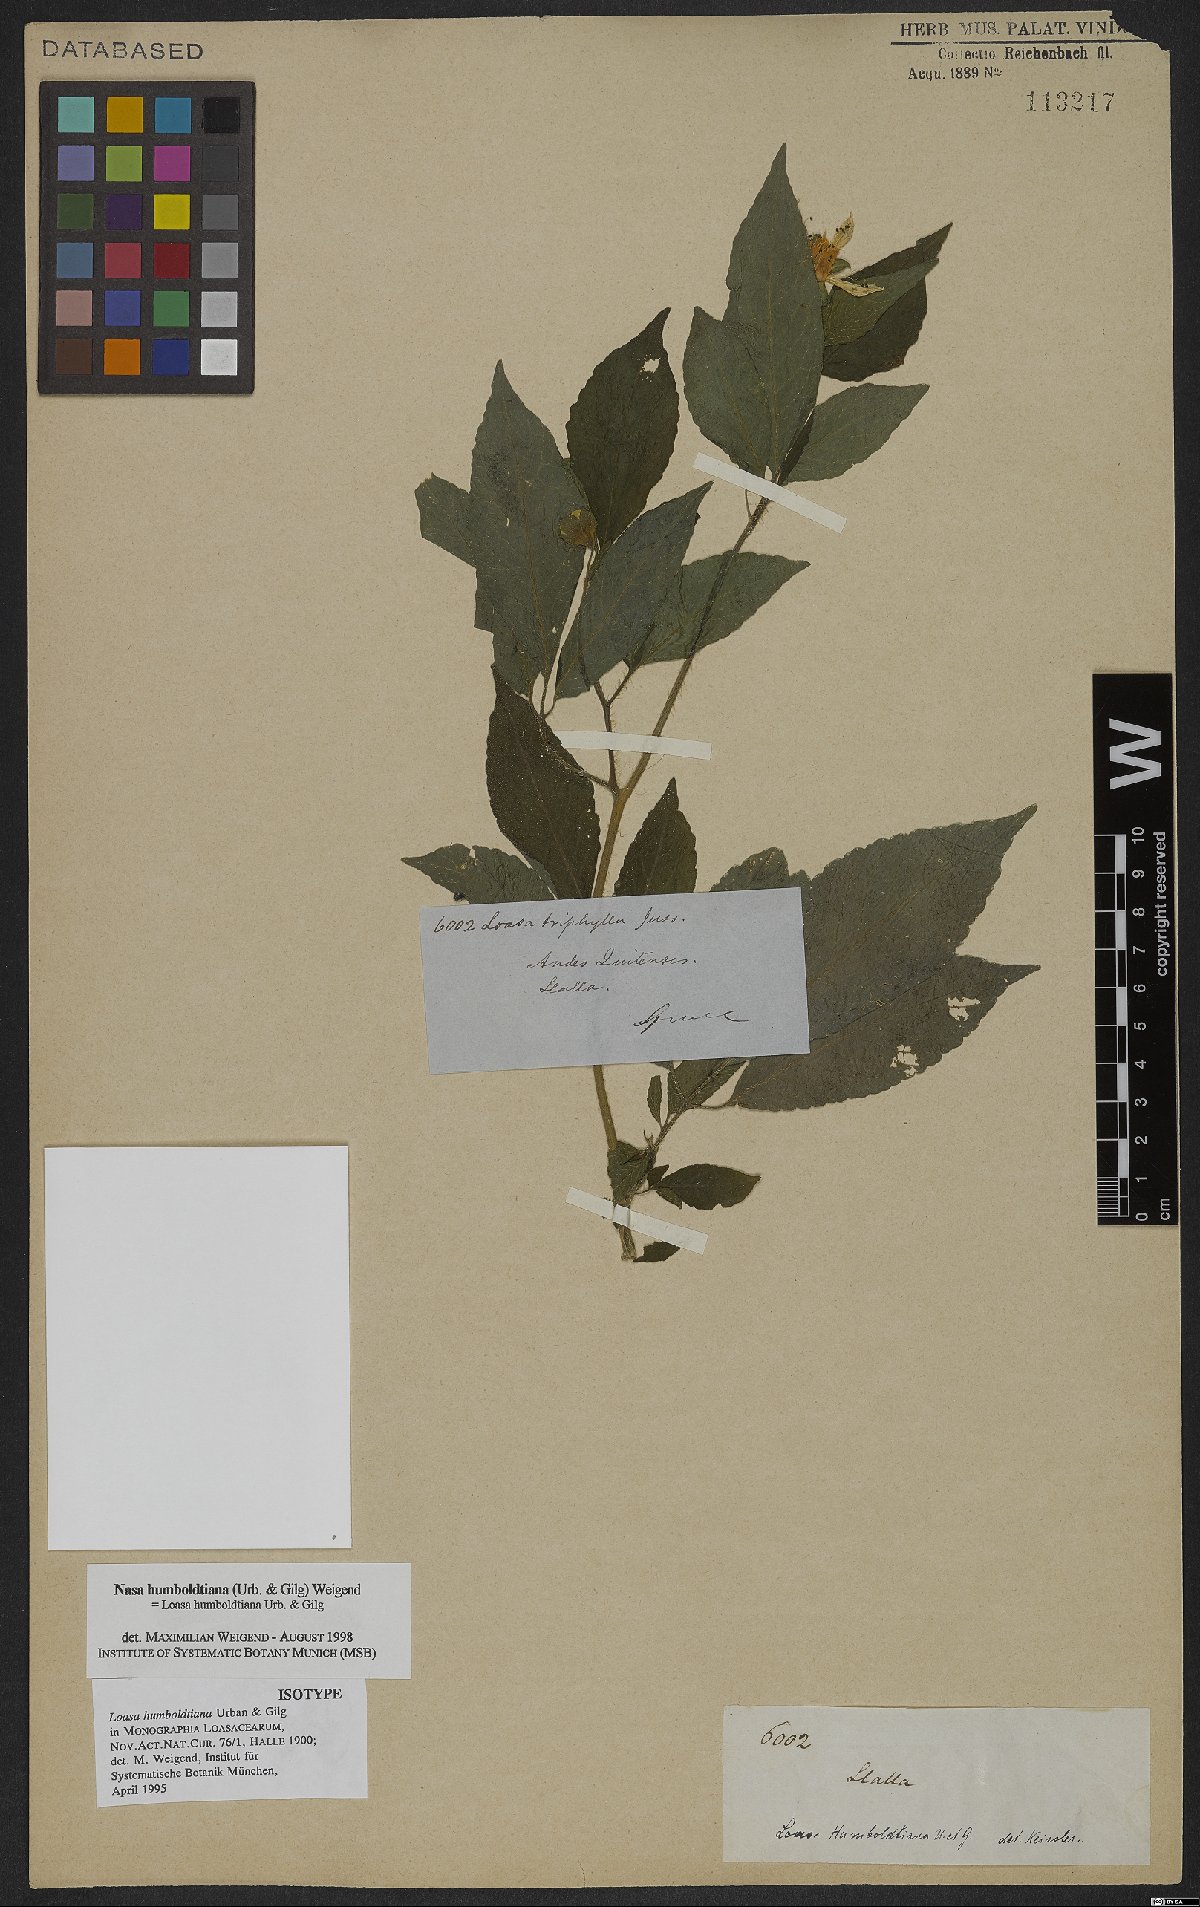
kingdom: Plantae
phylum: Tracheophyta
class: Magnoliopsida
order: Cornales
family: Loasaceae
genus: Nasa
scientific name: Nasa humboldtiana
